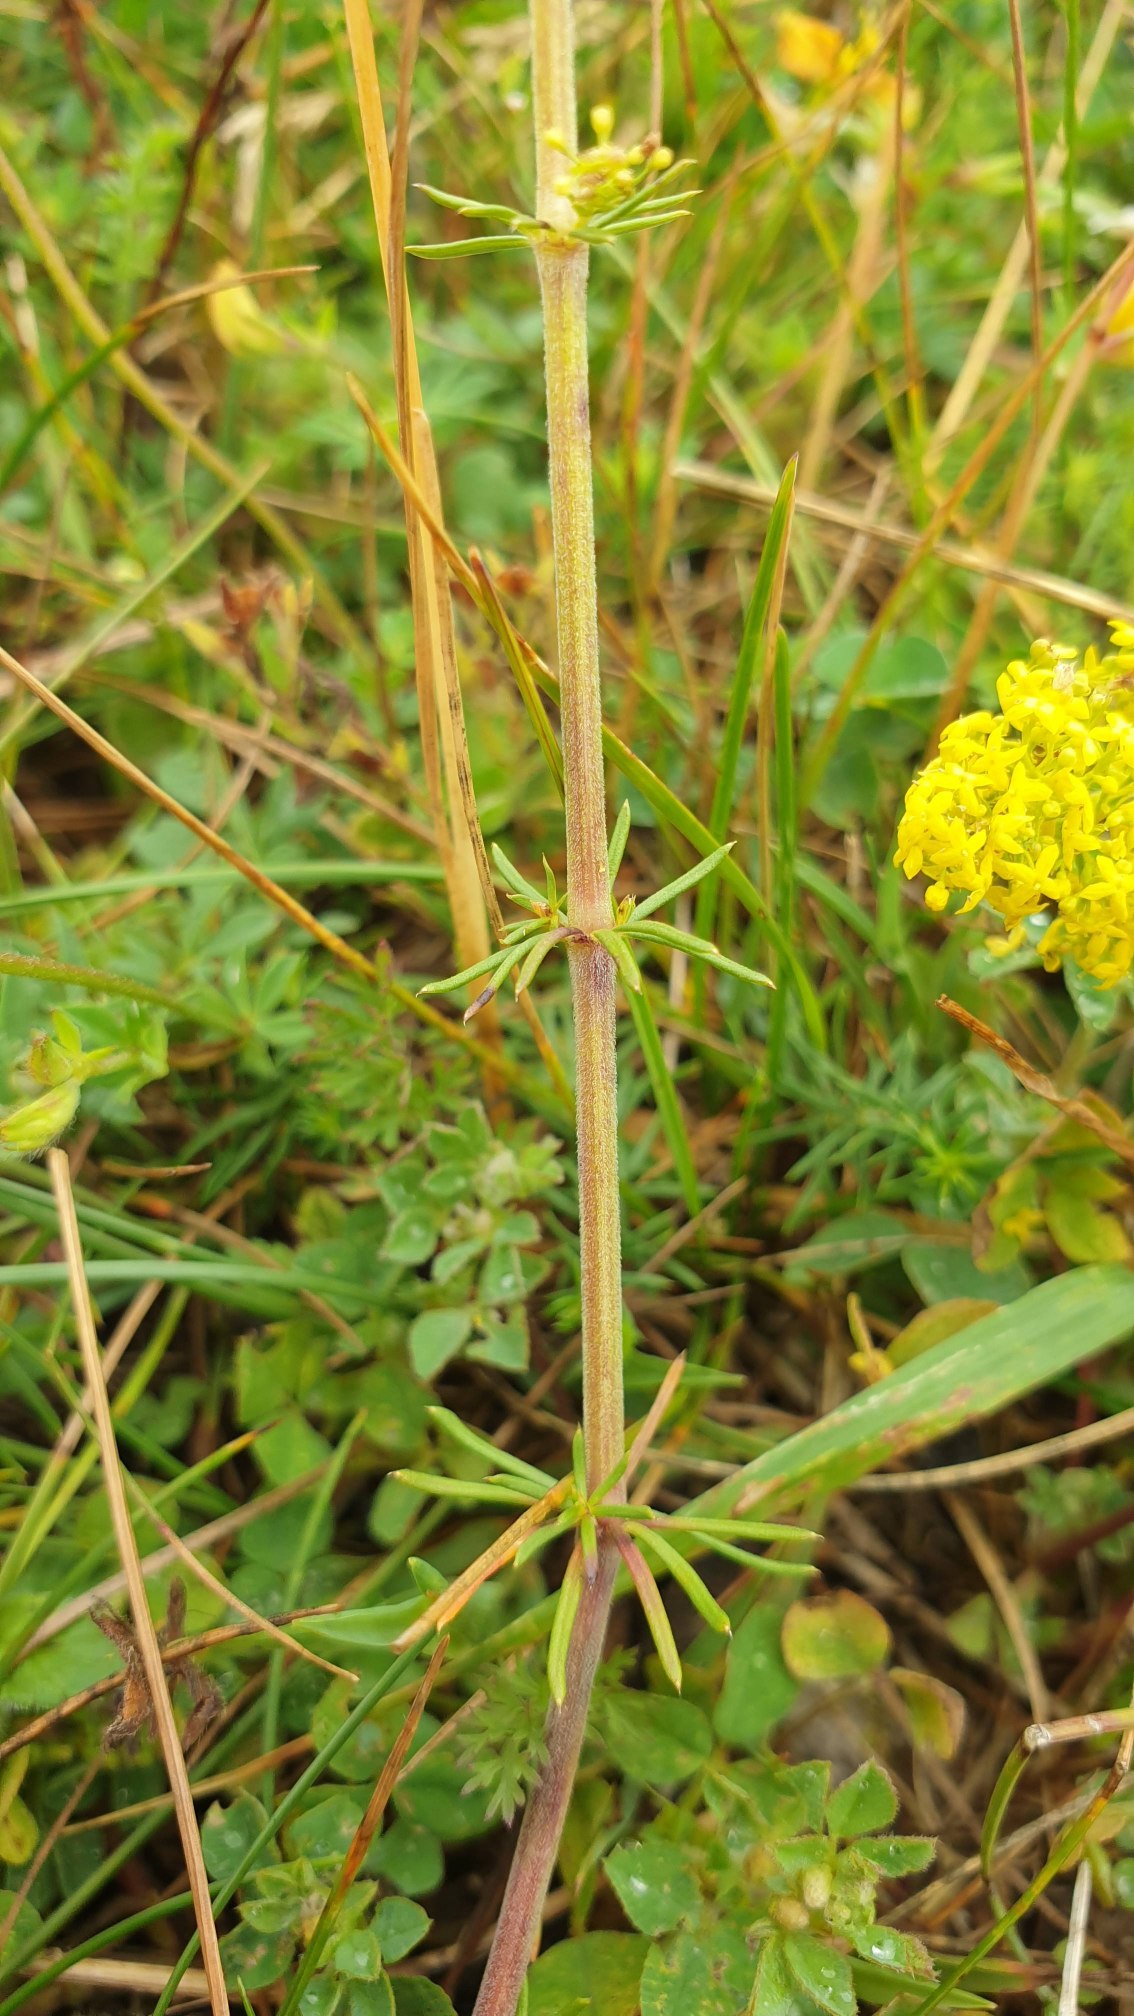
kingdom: Plantae
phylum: Tracheophyta
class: Magnoliopsida
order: Gentianales
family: Rubiaceae
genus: Galium
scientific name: Galium verum
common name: Gul snerre
